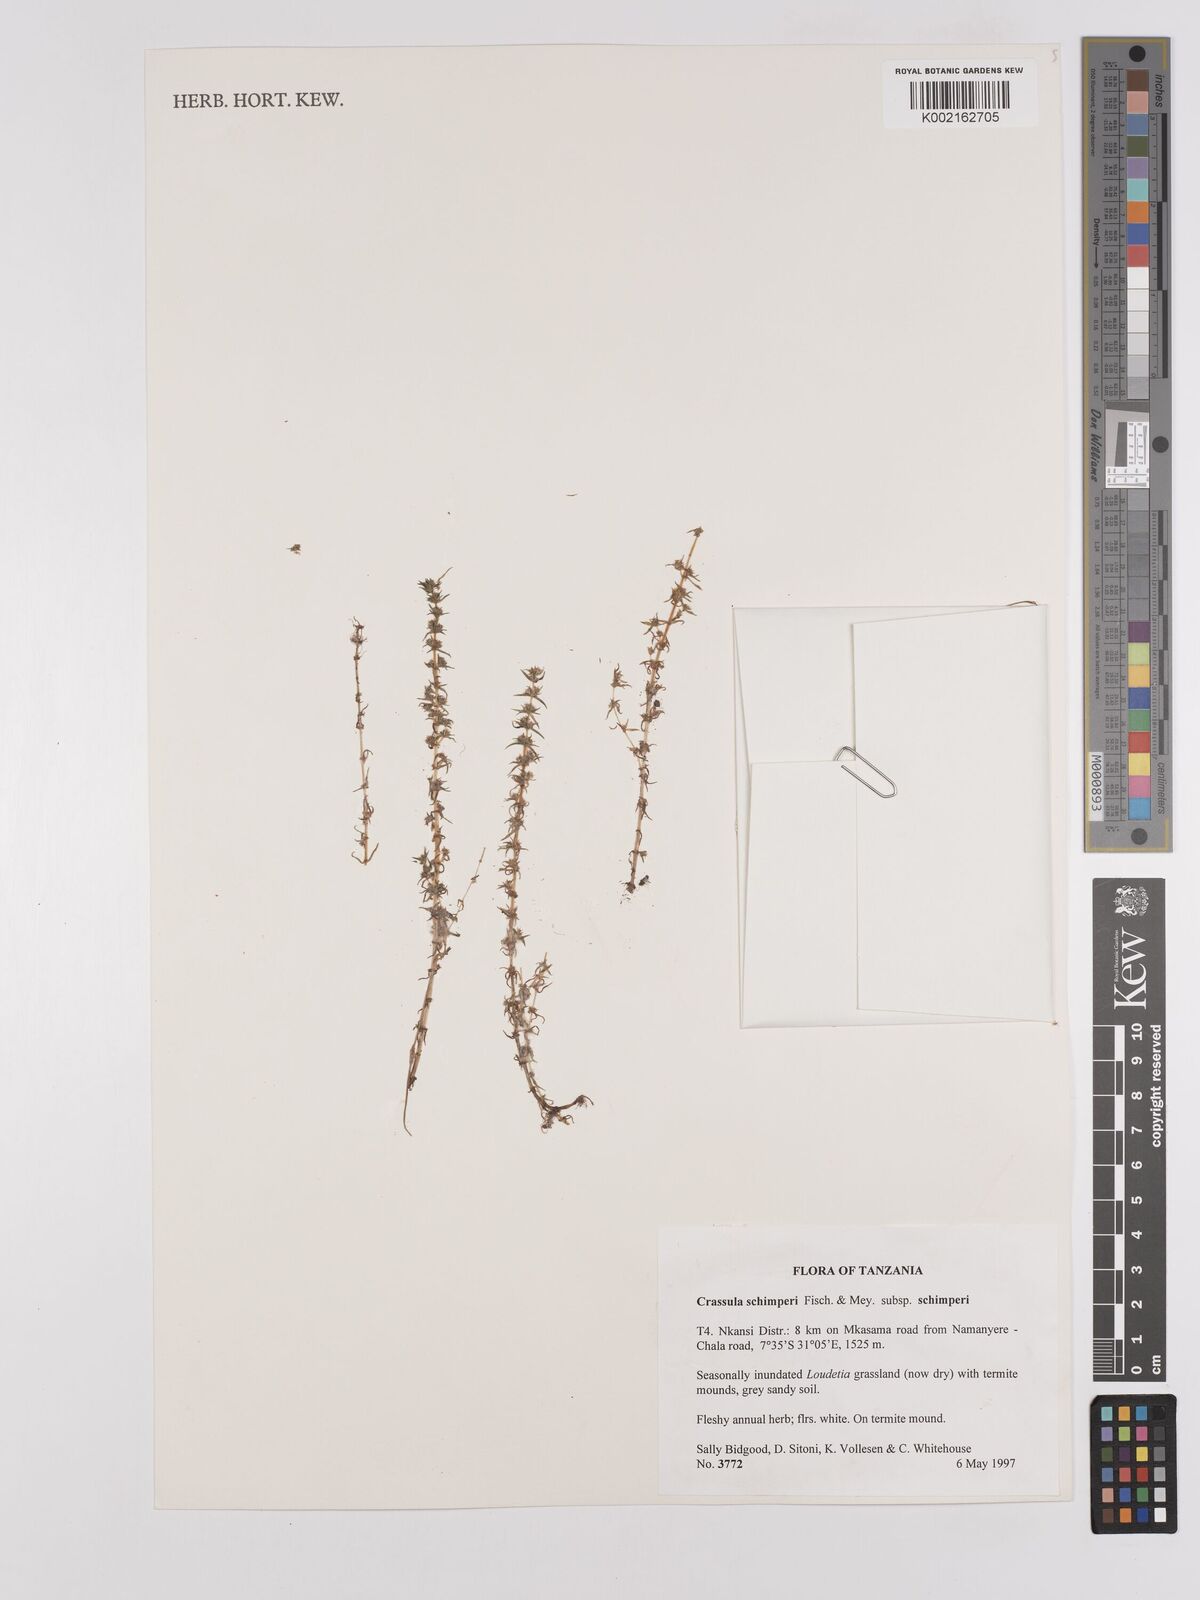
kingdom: Plantae
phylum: Tracheophyta
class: Magnoliopsida
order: Saxifragales
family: Crassulaceae
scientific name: Crassulaceae
